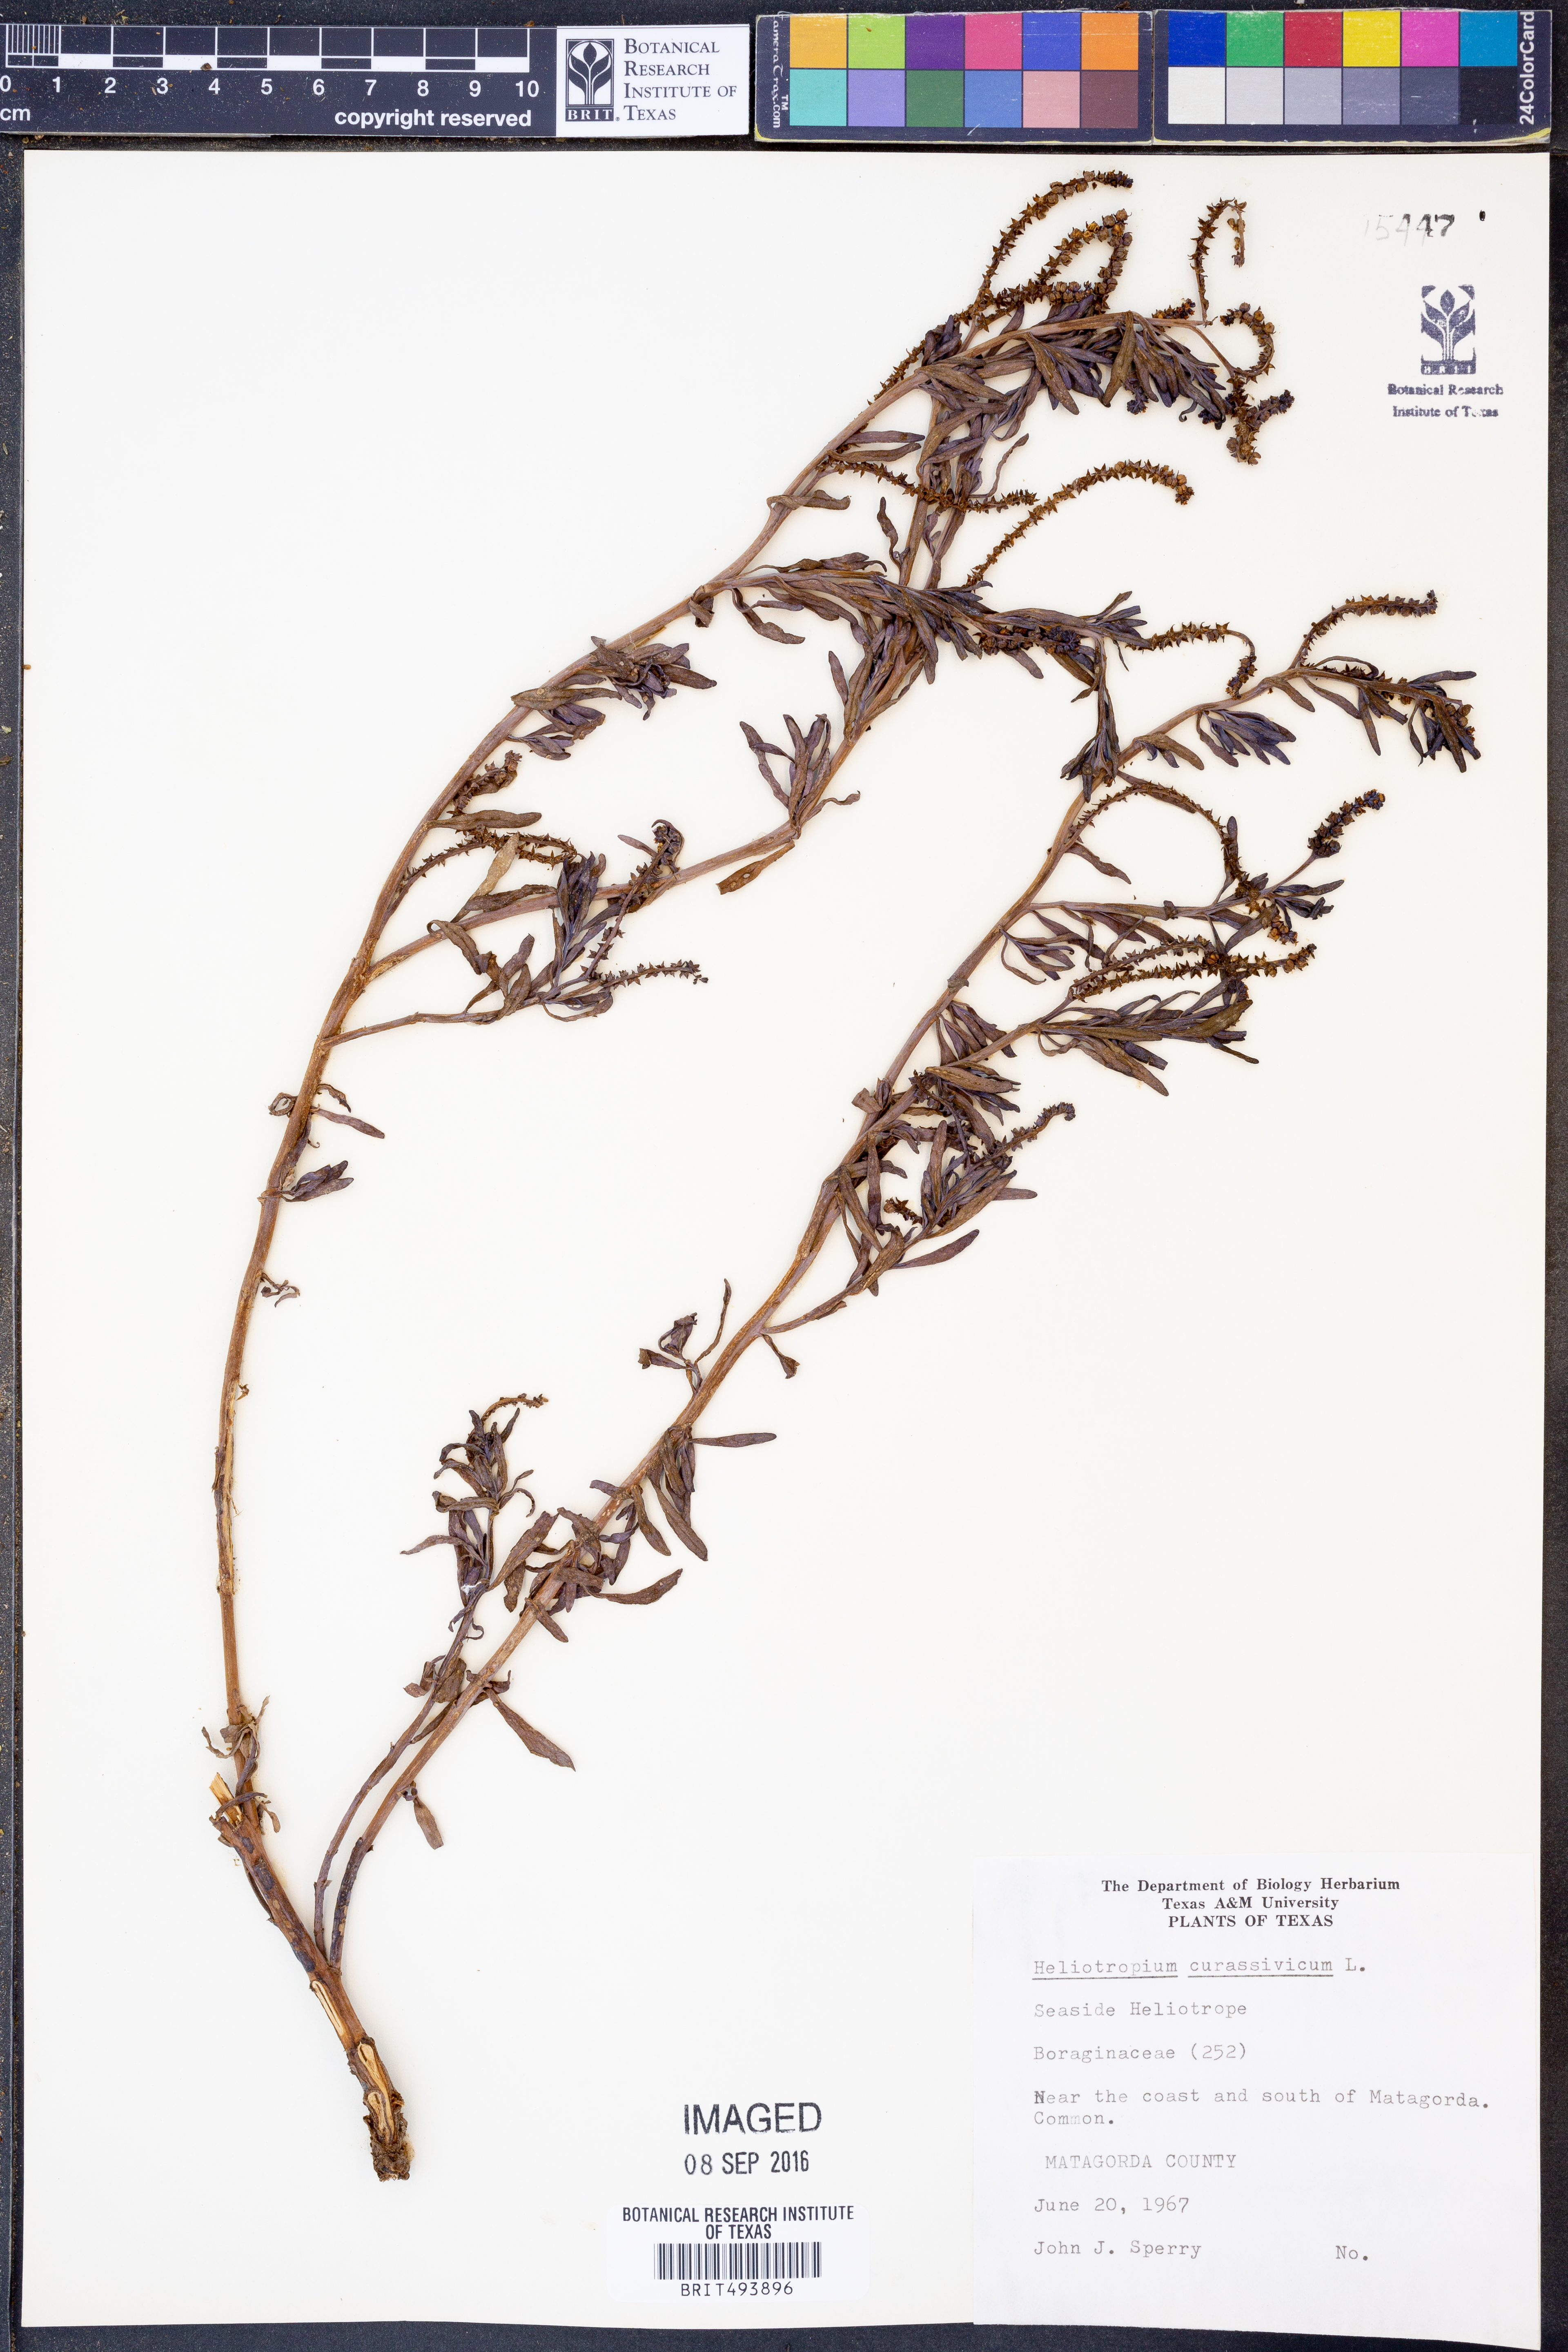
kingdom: Plantae
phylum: Tracheophyta
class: Magnoliopsida
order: Boraginales
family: Heliotropiaceae
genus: Heliotropium
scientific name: Heliotropium curassavicum
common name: Seaside heliotrope
